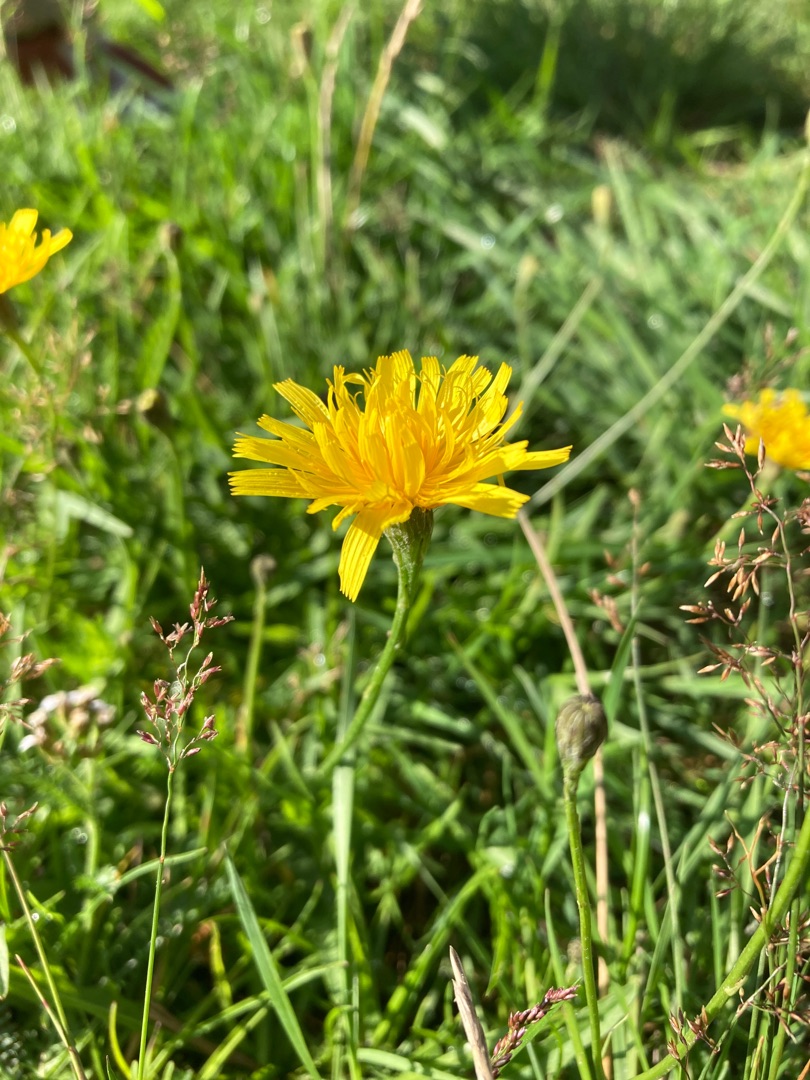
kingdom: Plantae
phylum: Tracheophyta
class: Magnoliopsida
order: Asterales
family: Asteraceae
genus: Scorzoneroides
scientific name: Scorzoneroides autumnalis
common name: Høst-borst
